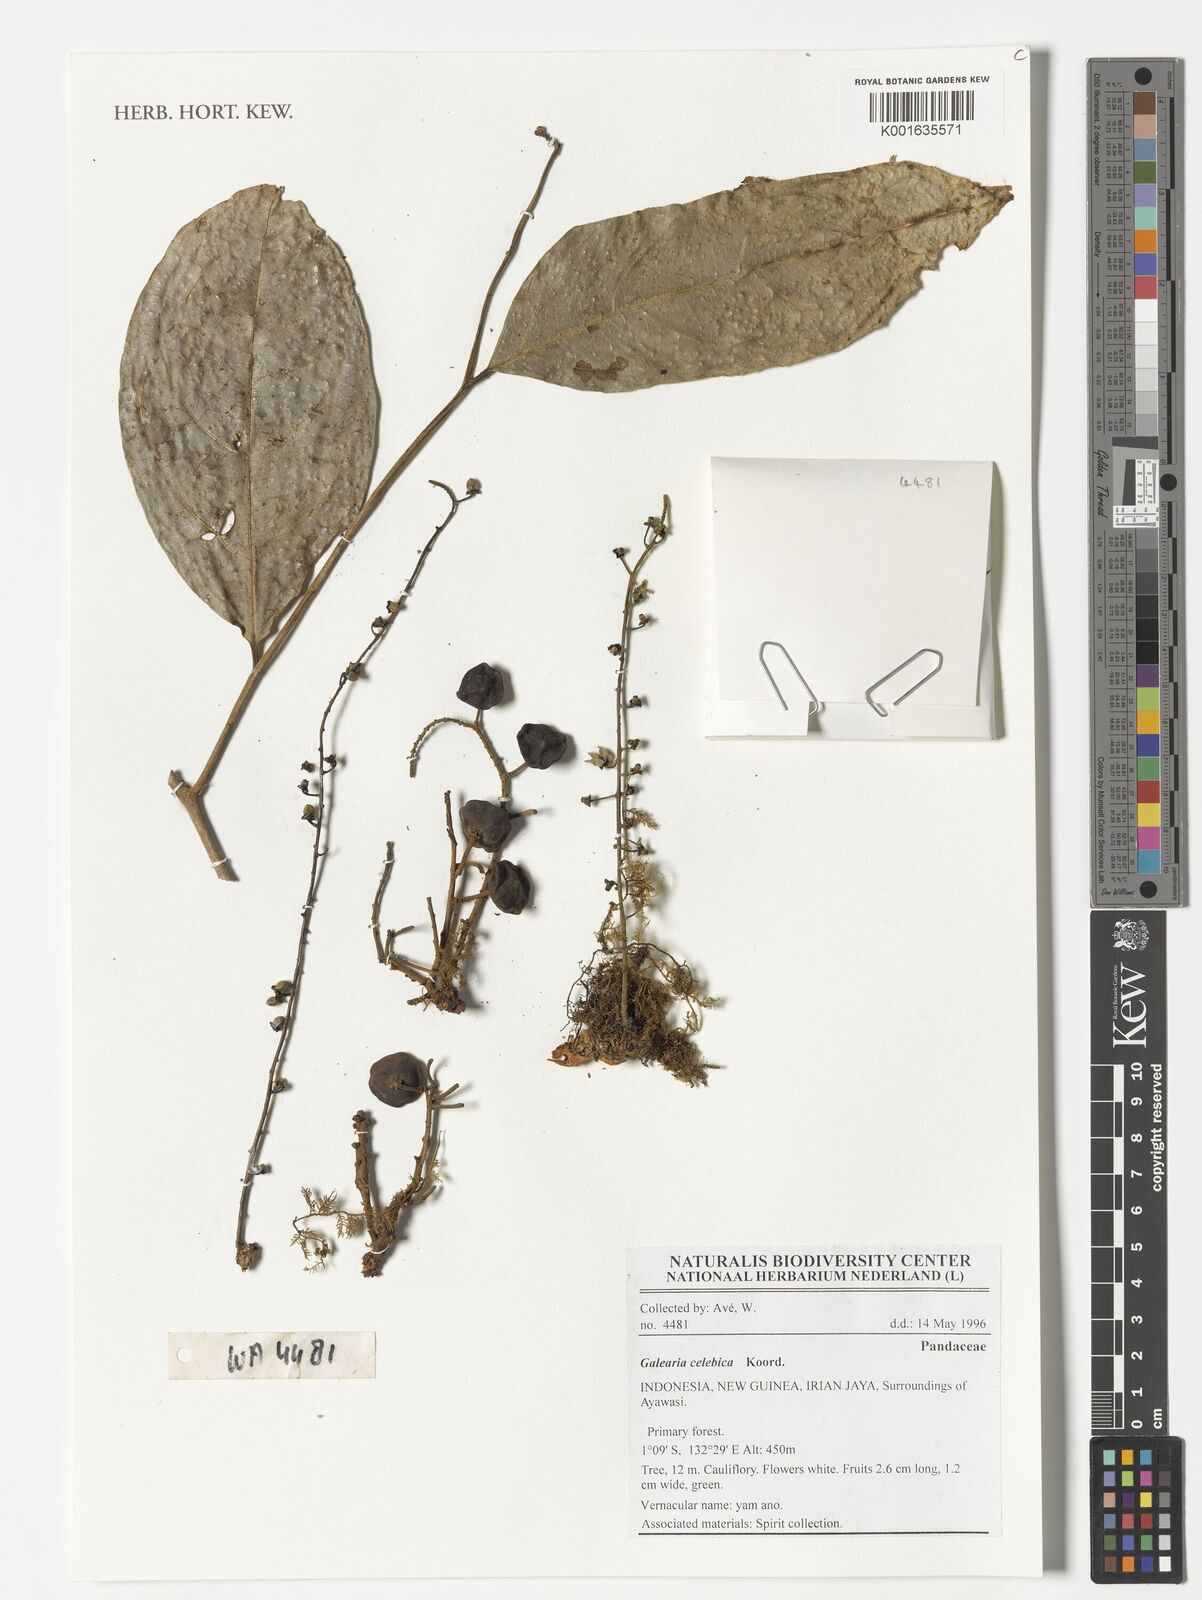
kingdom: Plantae
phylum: Tracheophyta
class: Magnoliopsida
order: Malpighiales
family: Pandaceae
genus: Galearia
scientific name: Galearia celebica
